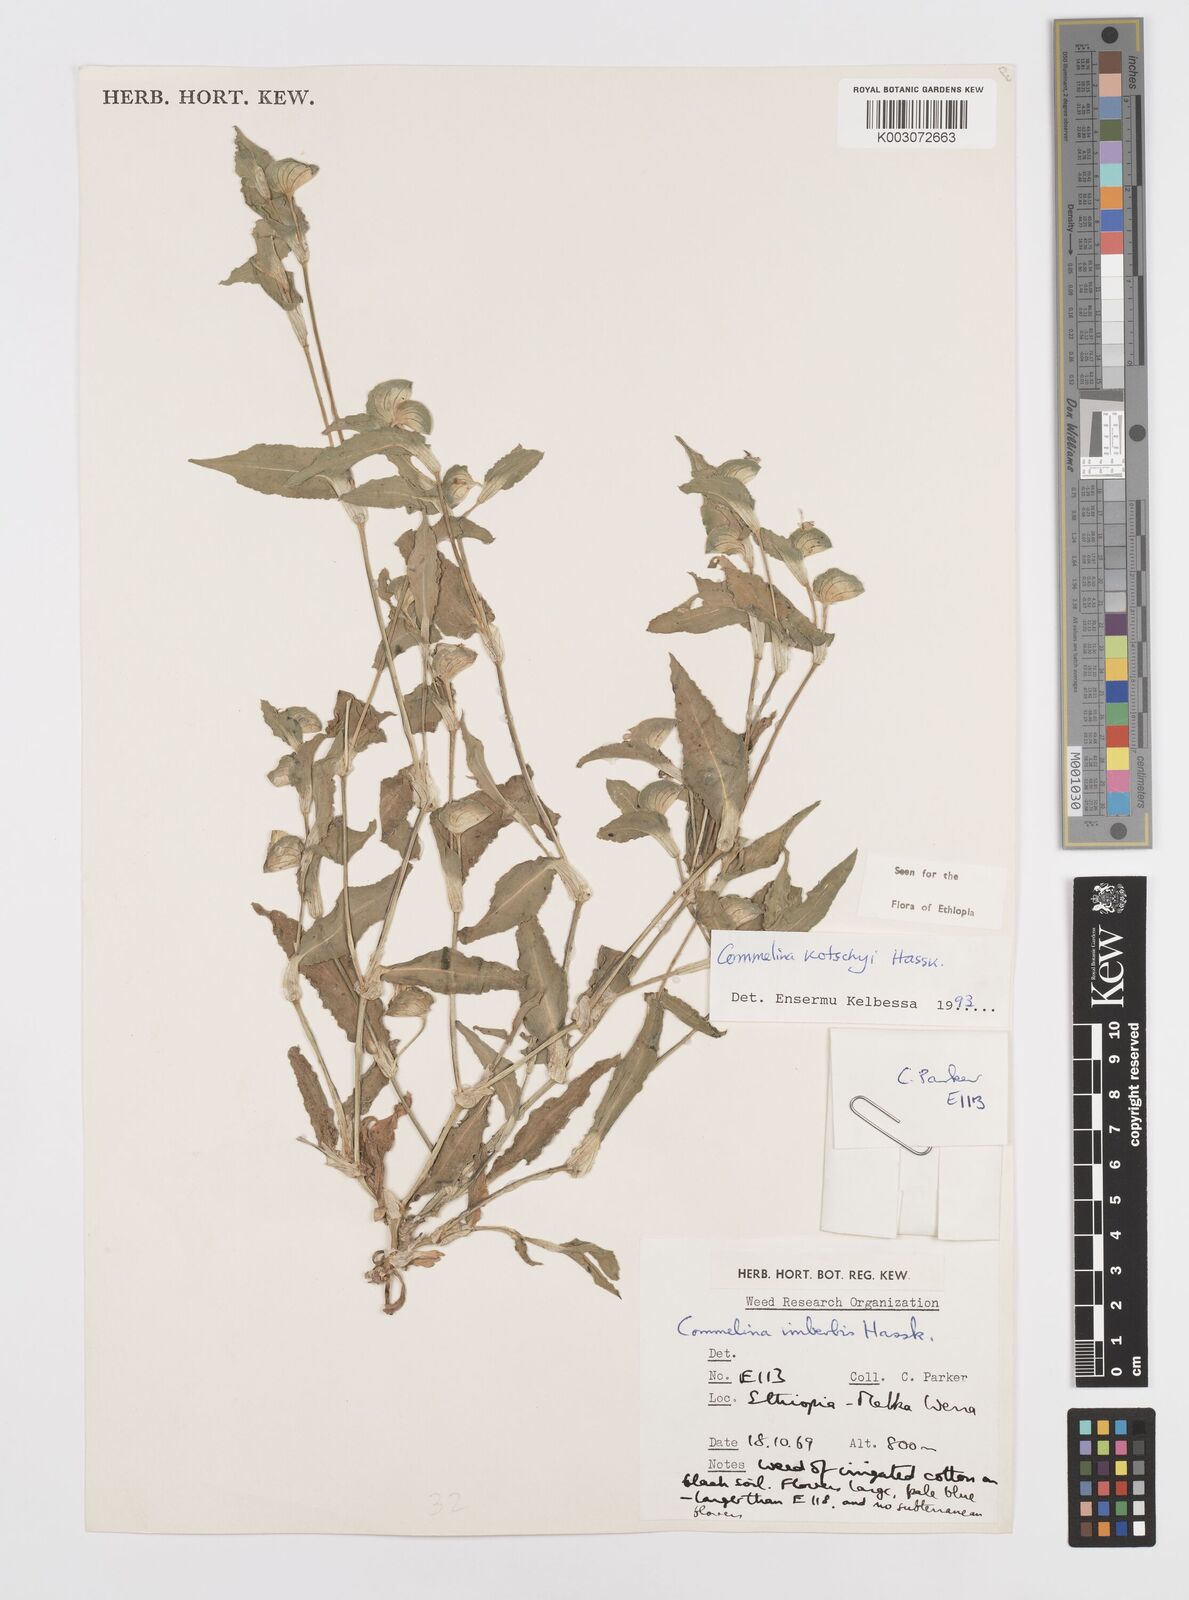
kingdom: Plantae
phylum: Tracheophyta
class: Liliopsida
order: Commelinales
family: Commelinaceae
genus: Commelina
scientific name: Commelina kotschyi
